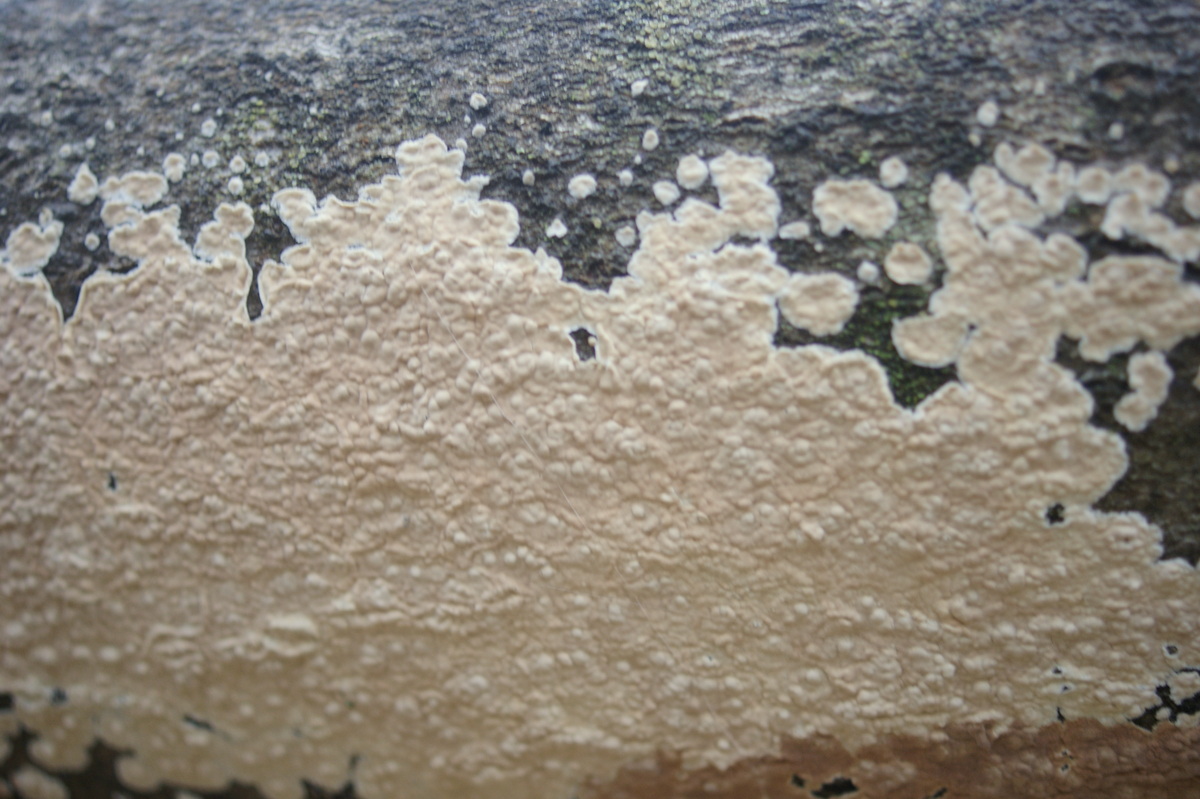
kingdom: Fungi
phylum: Basidiomycota
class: Agaricomycetes
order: Agaricales
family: Physalacriaceae
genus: Cylindrobasidium
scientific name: Cylindrobasidium evolvens
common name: sprækkehinde
